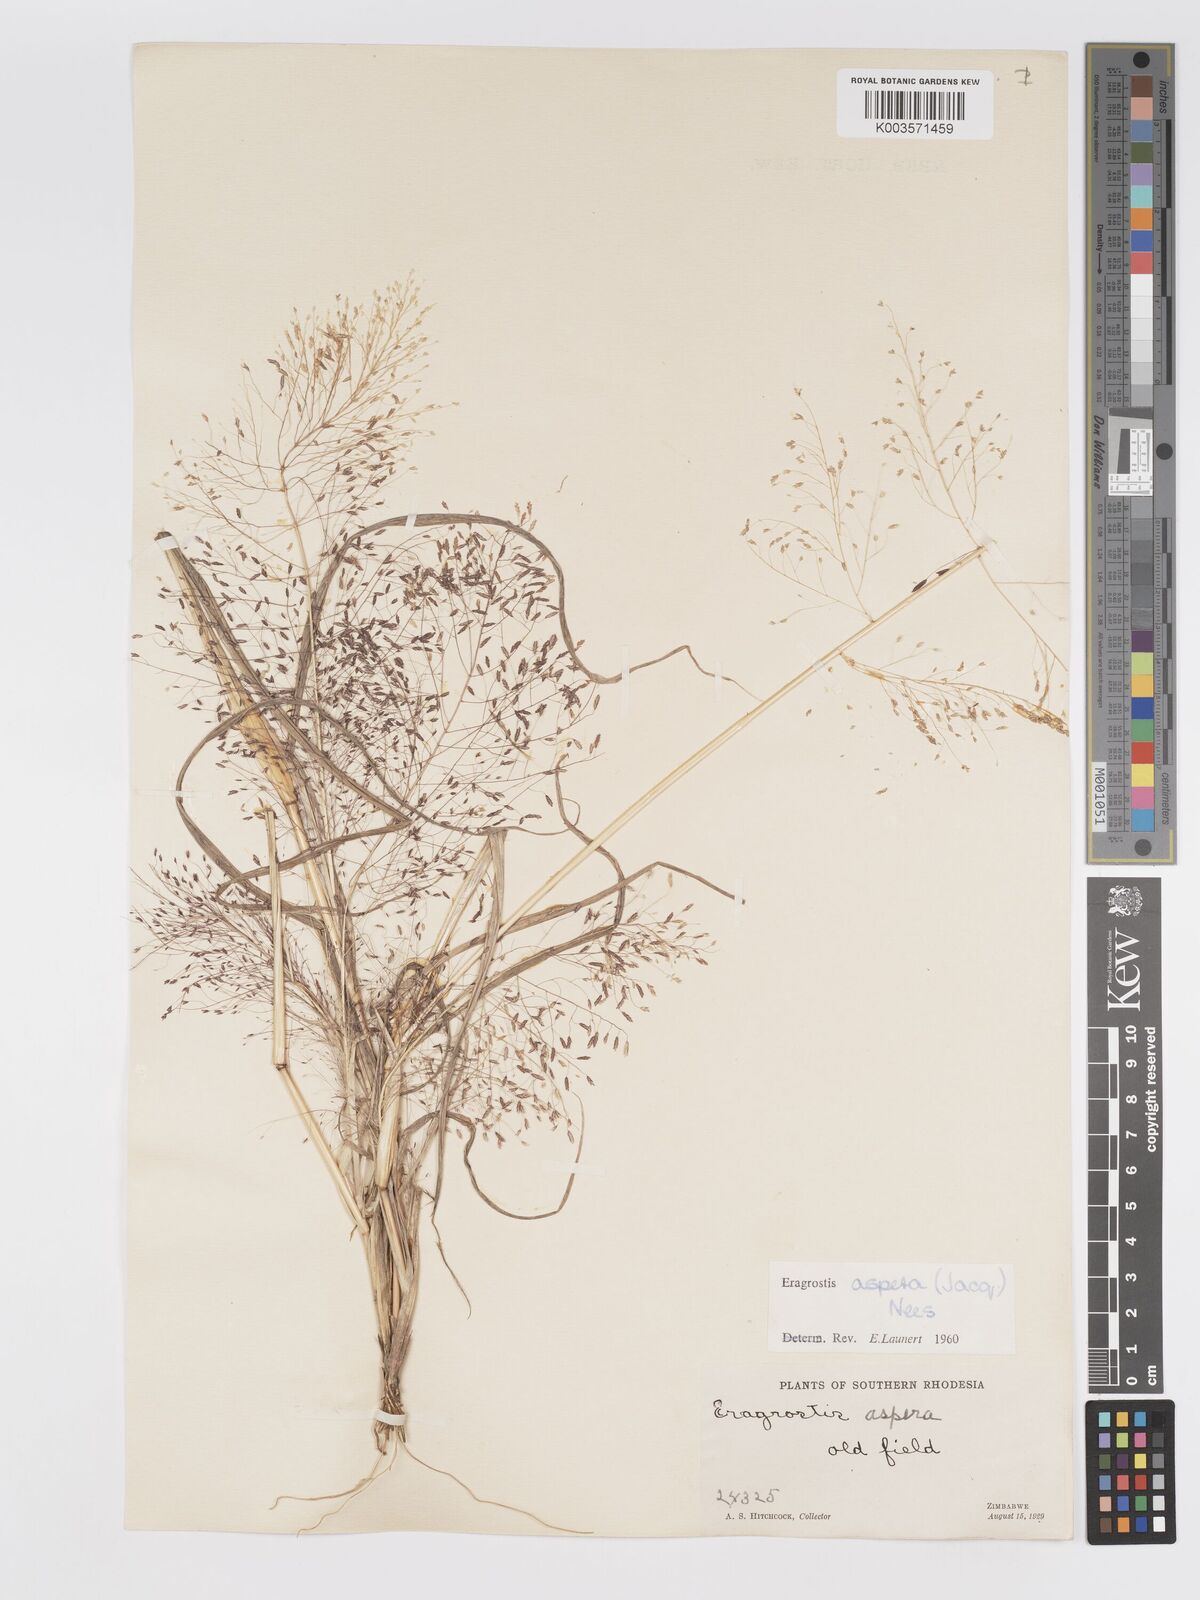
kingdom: Plantae
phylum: Tracheophyta
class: Liliopsida
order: Poales
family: Poaceae
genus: Eragrostis
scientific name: Eragrostis aspera
